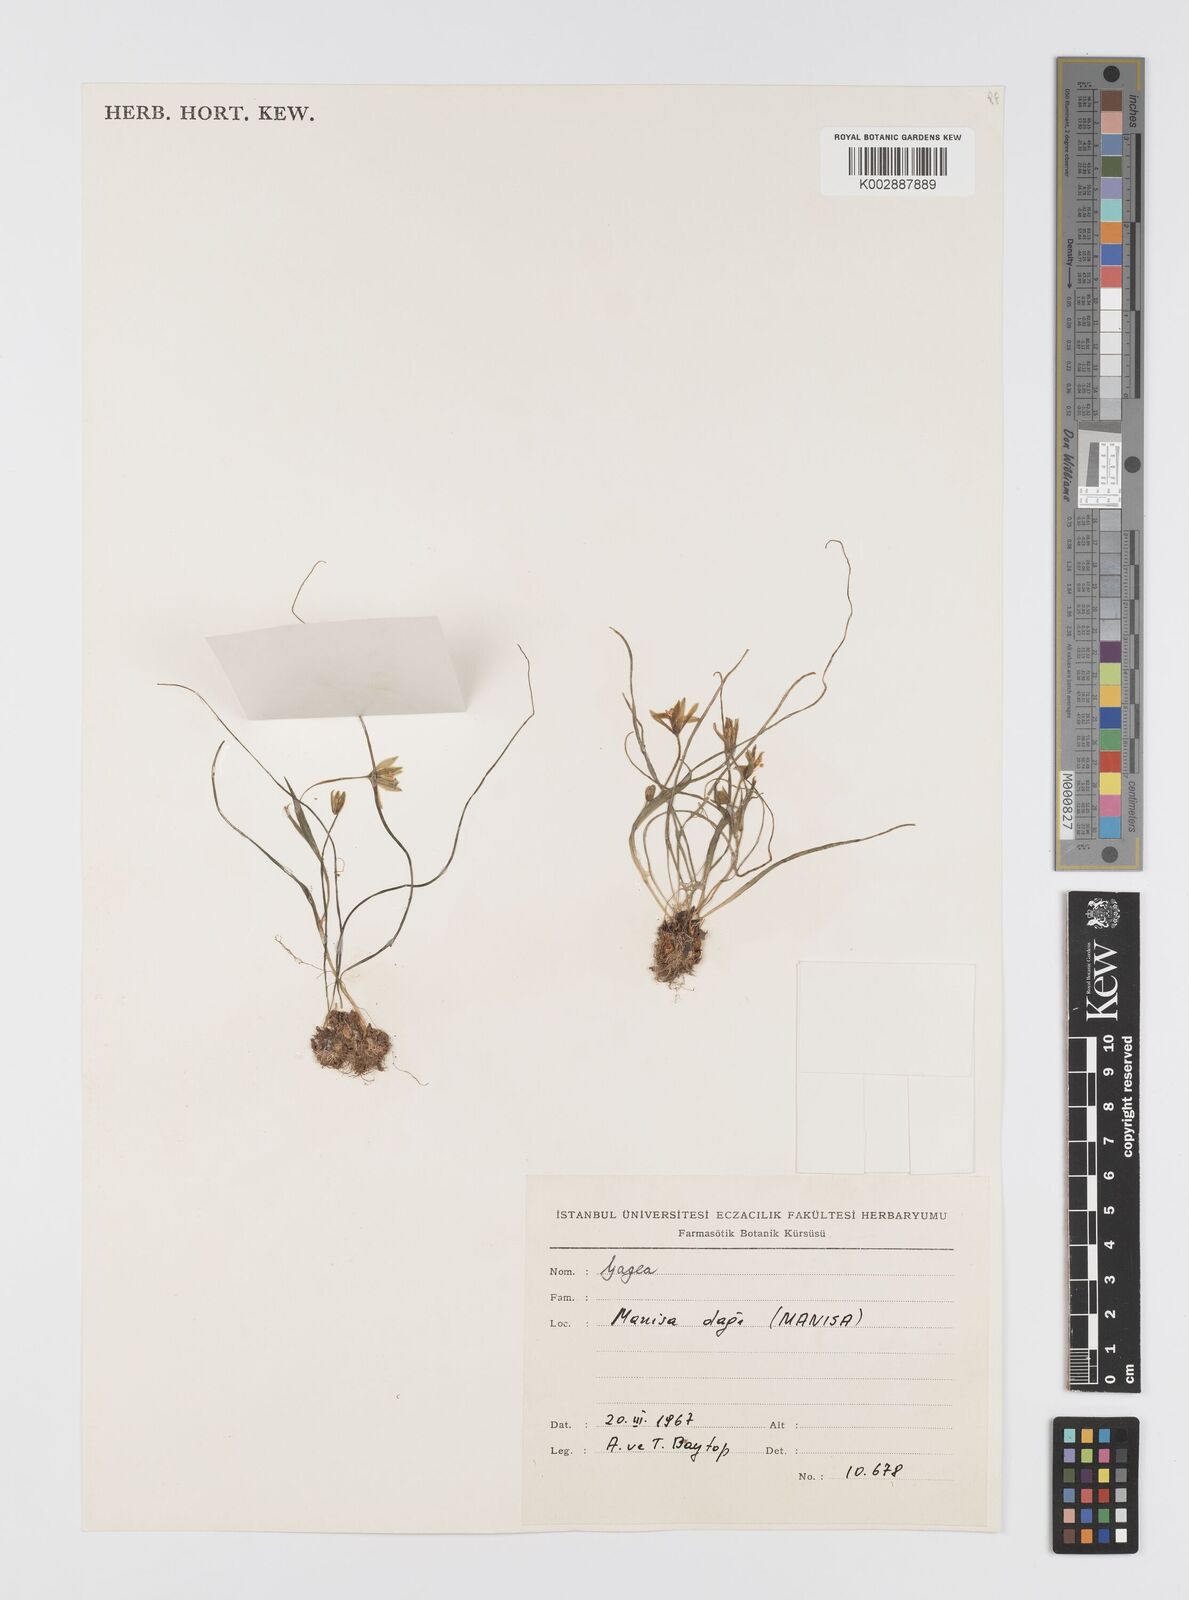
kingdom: Plantae
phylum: Tracheophyta
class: Liliopsida
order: Liliales
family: Liliaceae
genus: Gagea
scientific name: Gagea peduncularis
